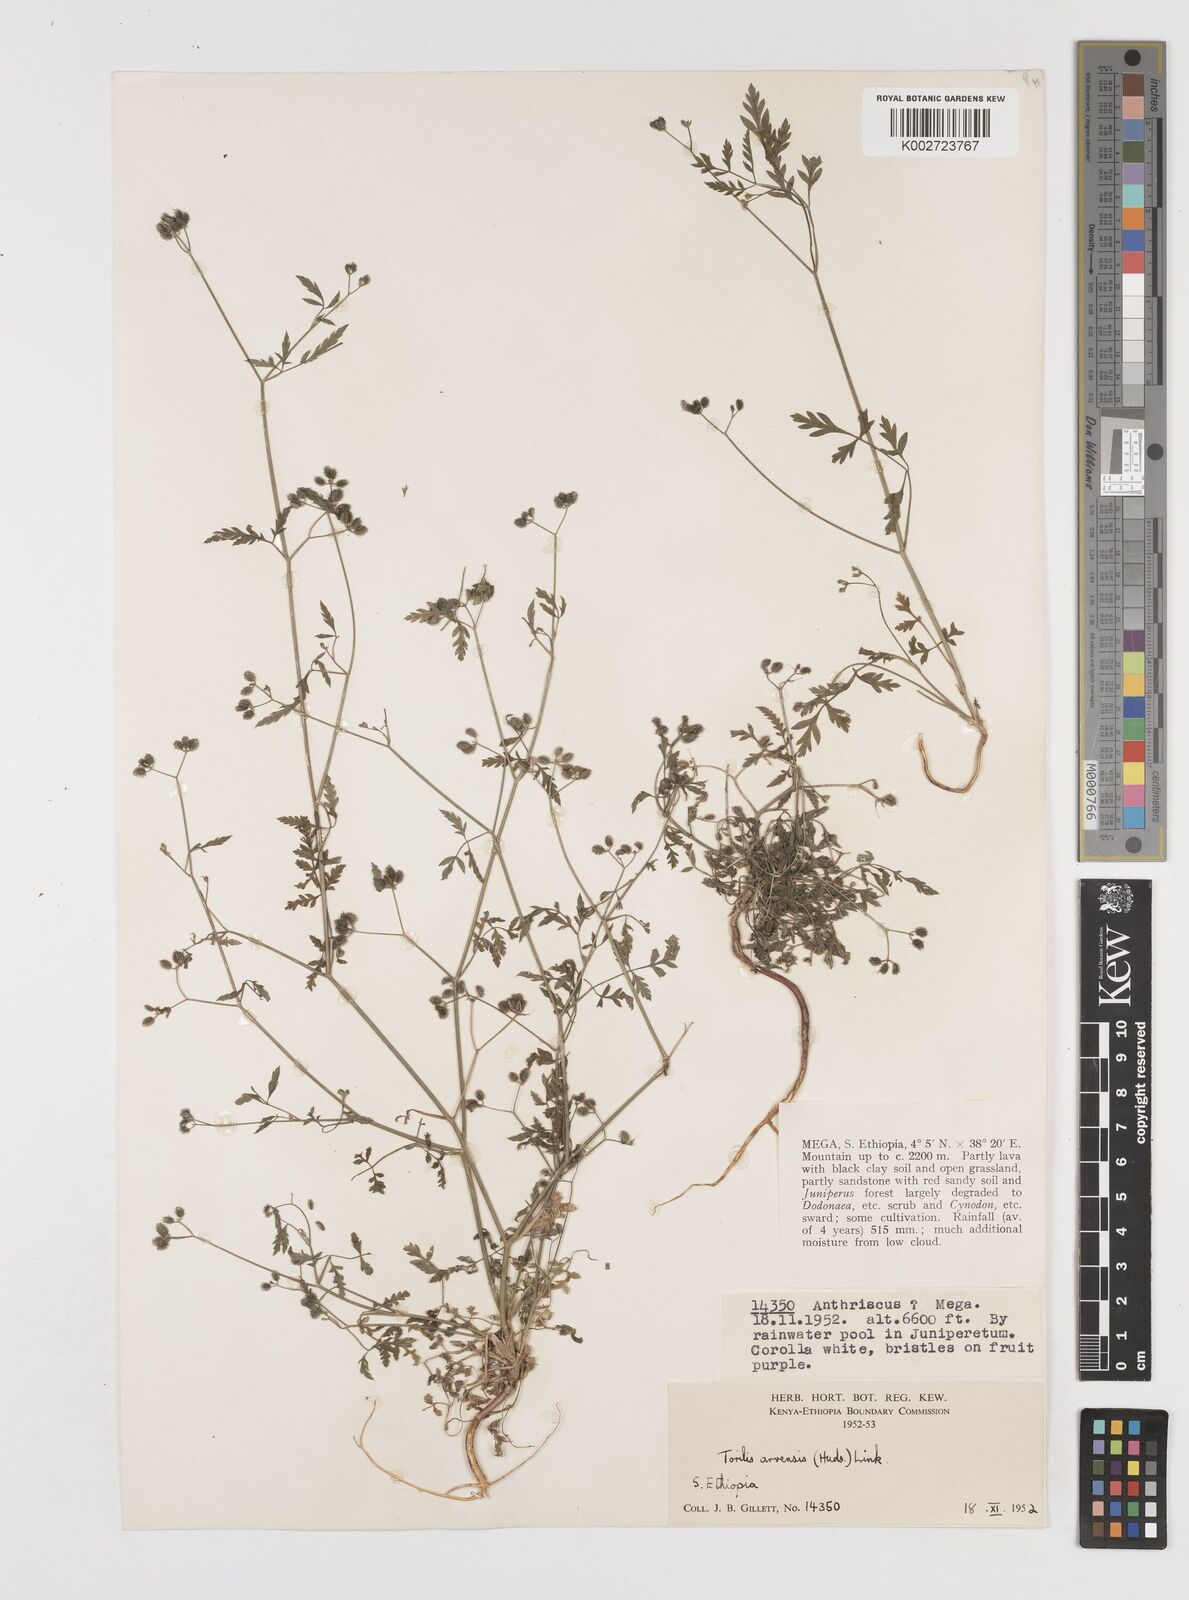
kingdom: Plantae
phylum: Tracheophyta
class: Magnoliopsida
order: Apiales
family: Apiaceae
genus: Torilis
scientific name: Torilis arvensis
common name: Spreading hedge-parsley
